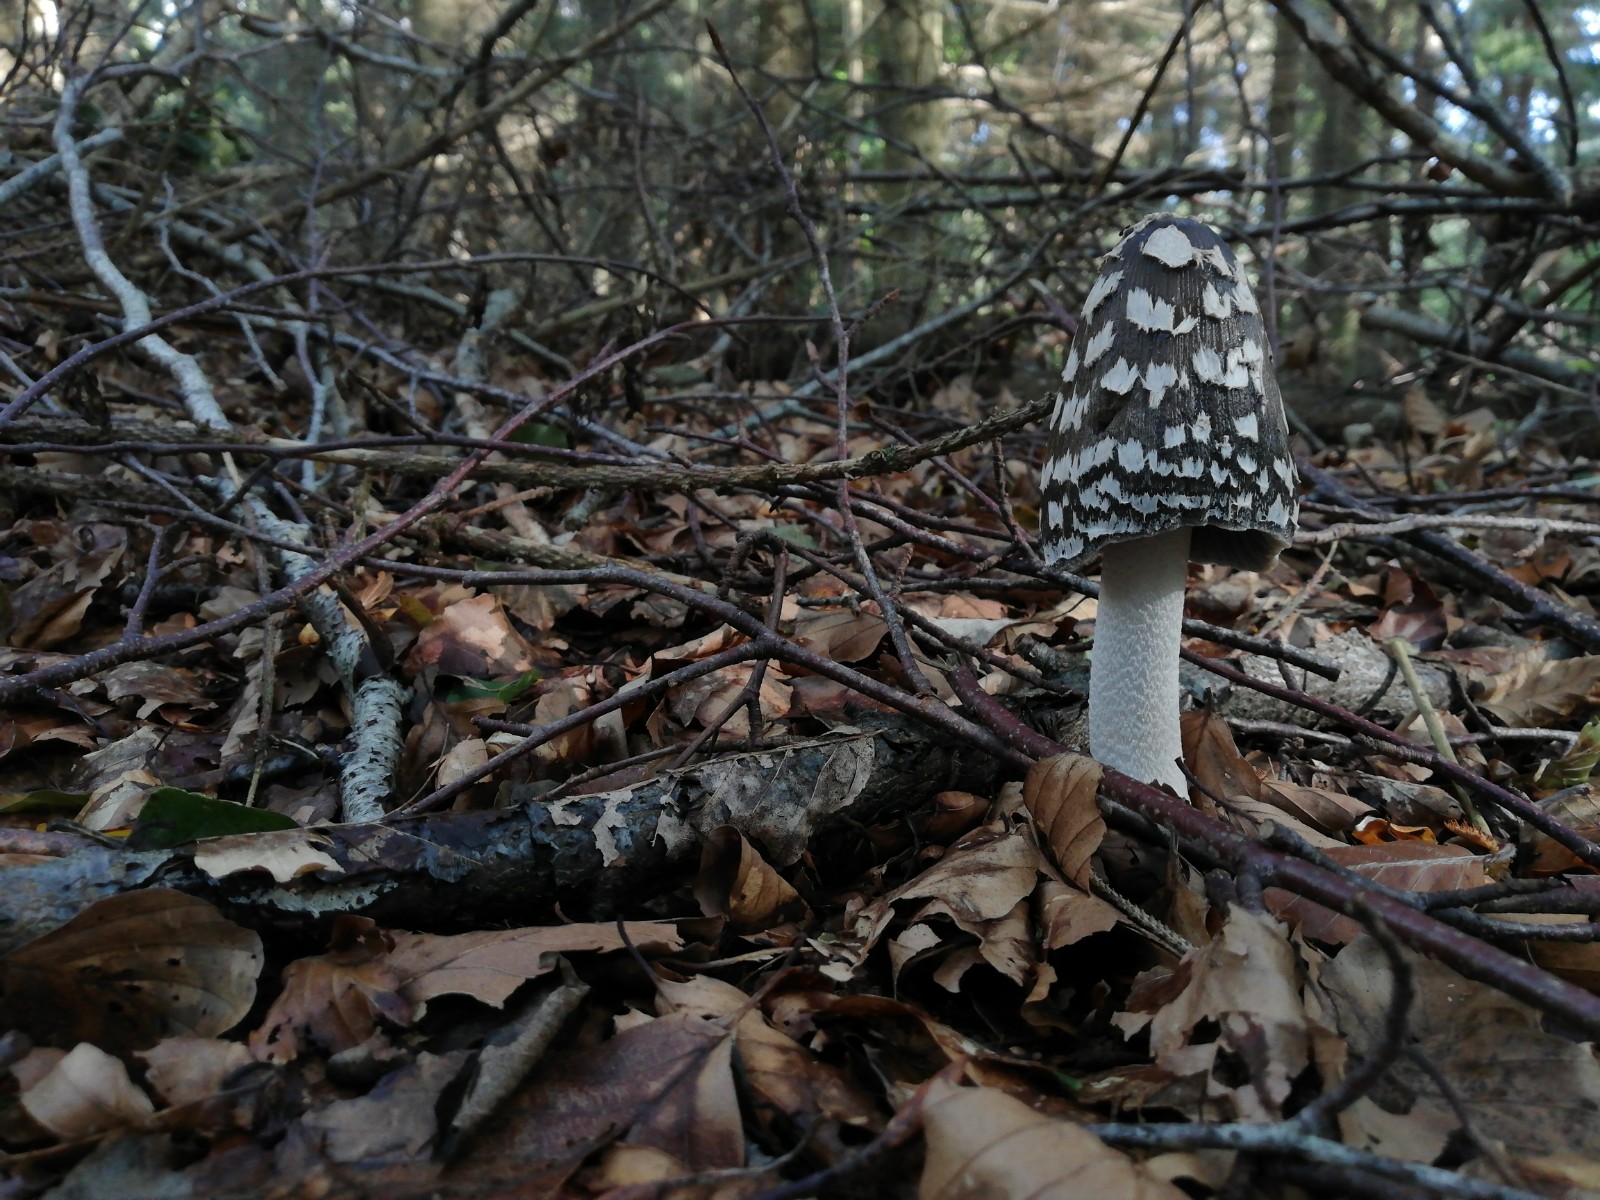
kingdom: Fungi
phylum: Basidiomycota
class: Agaricomycetes
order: Agaricales
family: Psathyrellaceae
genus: Coprinopsis
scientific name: Coprinopsis picacea
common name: skade-blækhat
